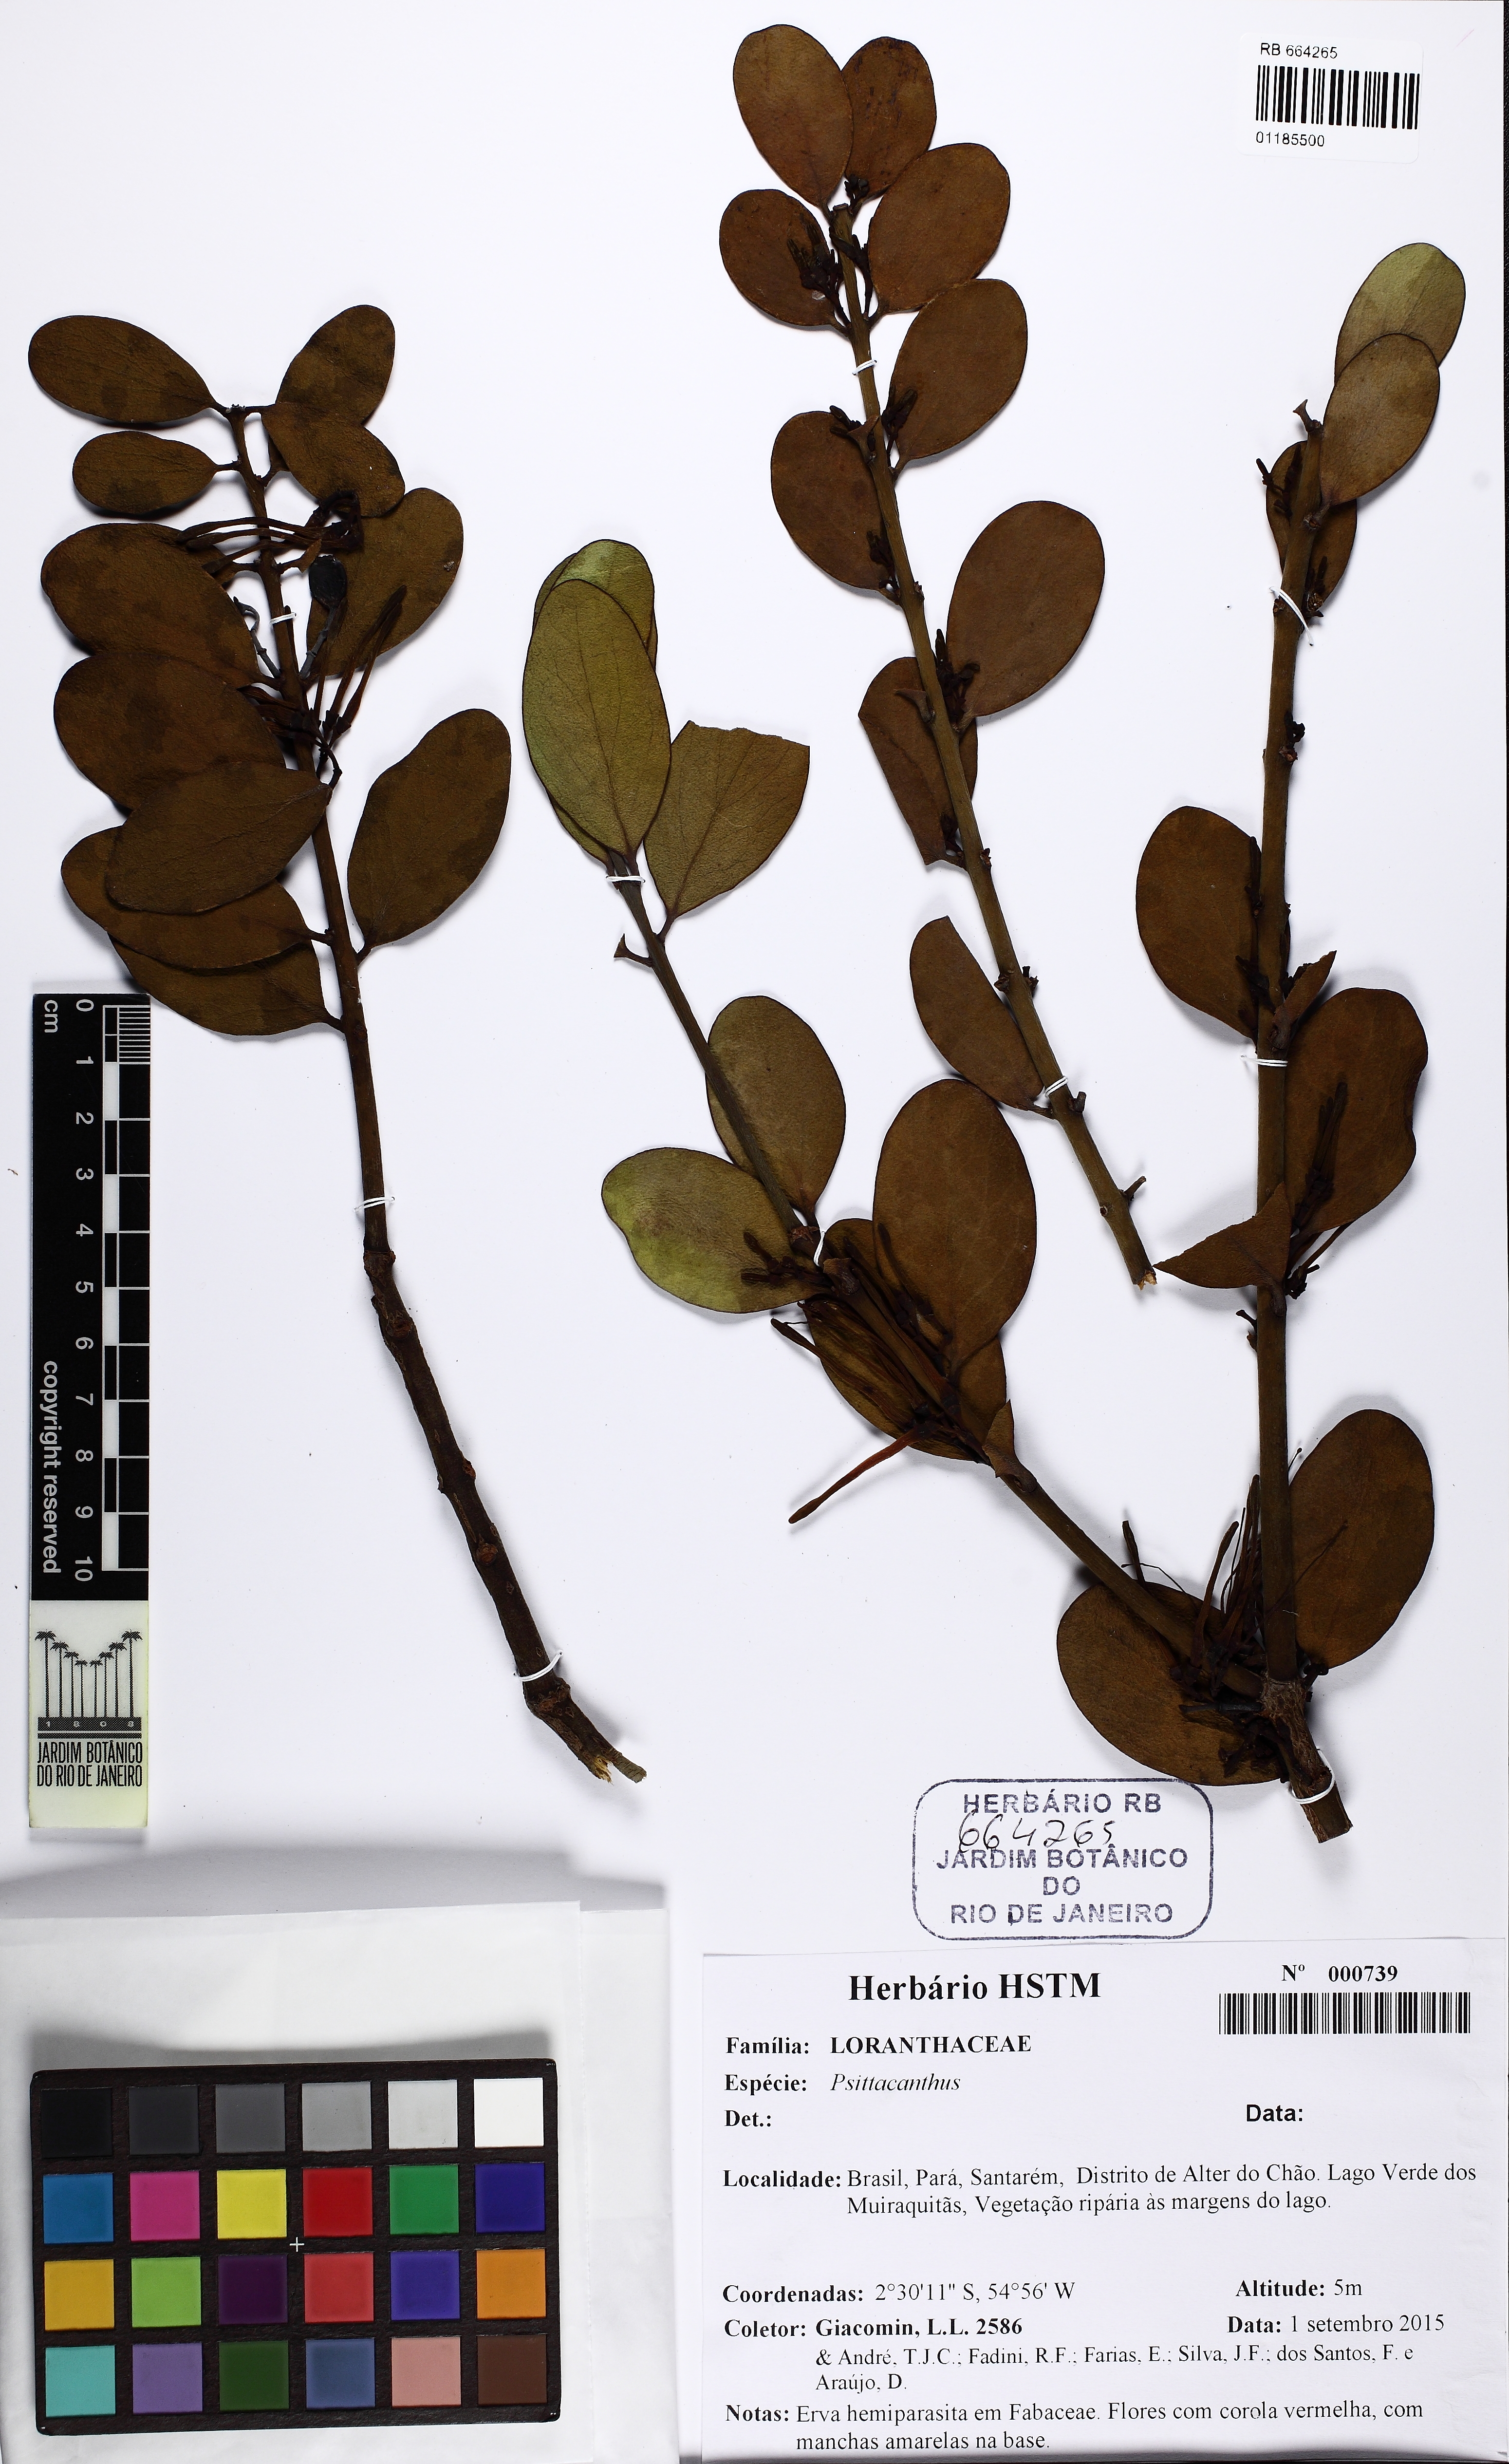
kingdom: Plantae
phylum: Tracheophyta
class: Magnoliopsida
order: Santalales
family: Loranthaceae
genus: Psittacanthus
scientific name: Psittacanthus
